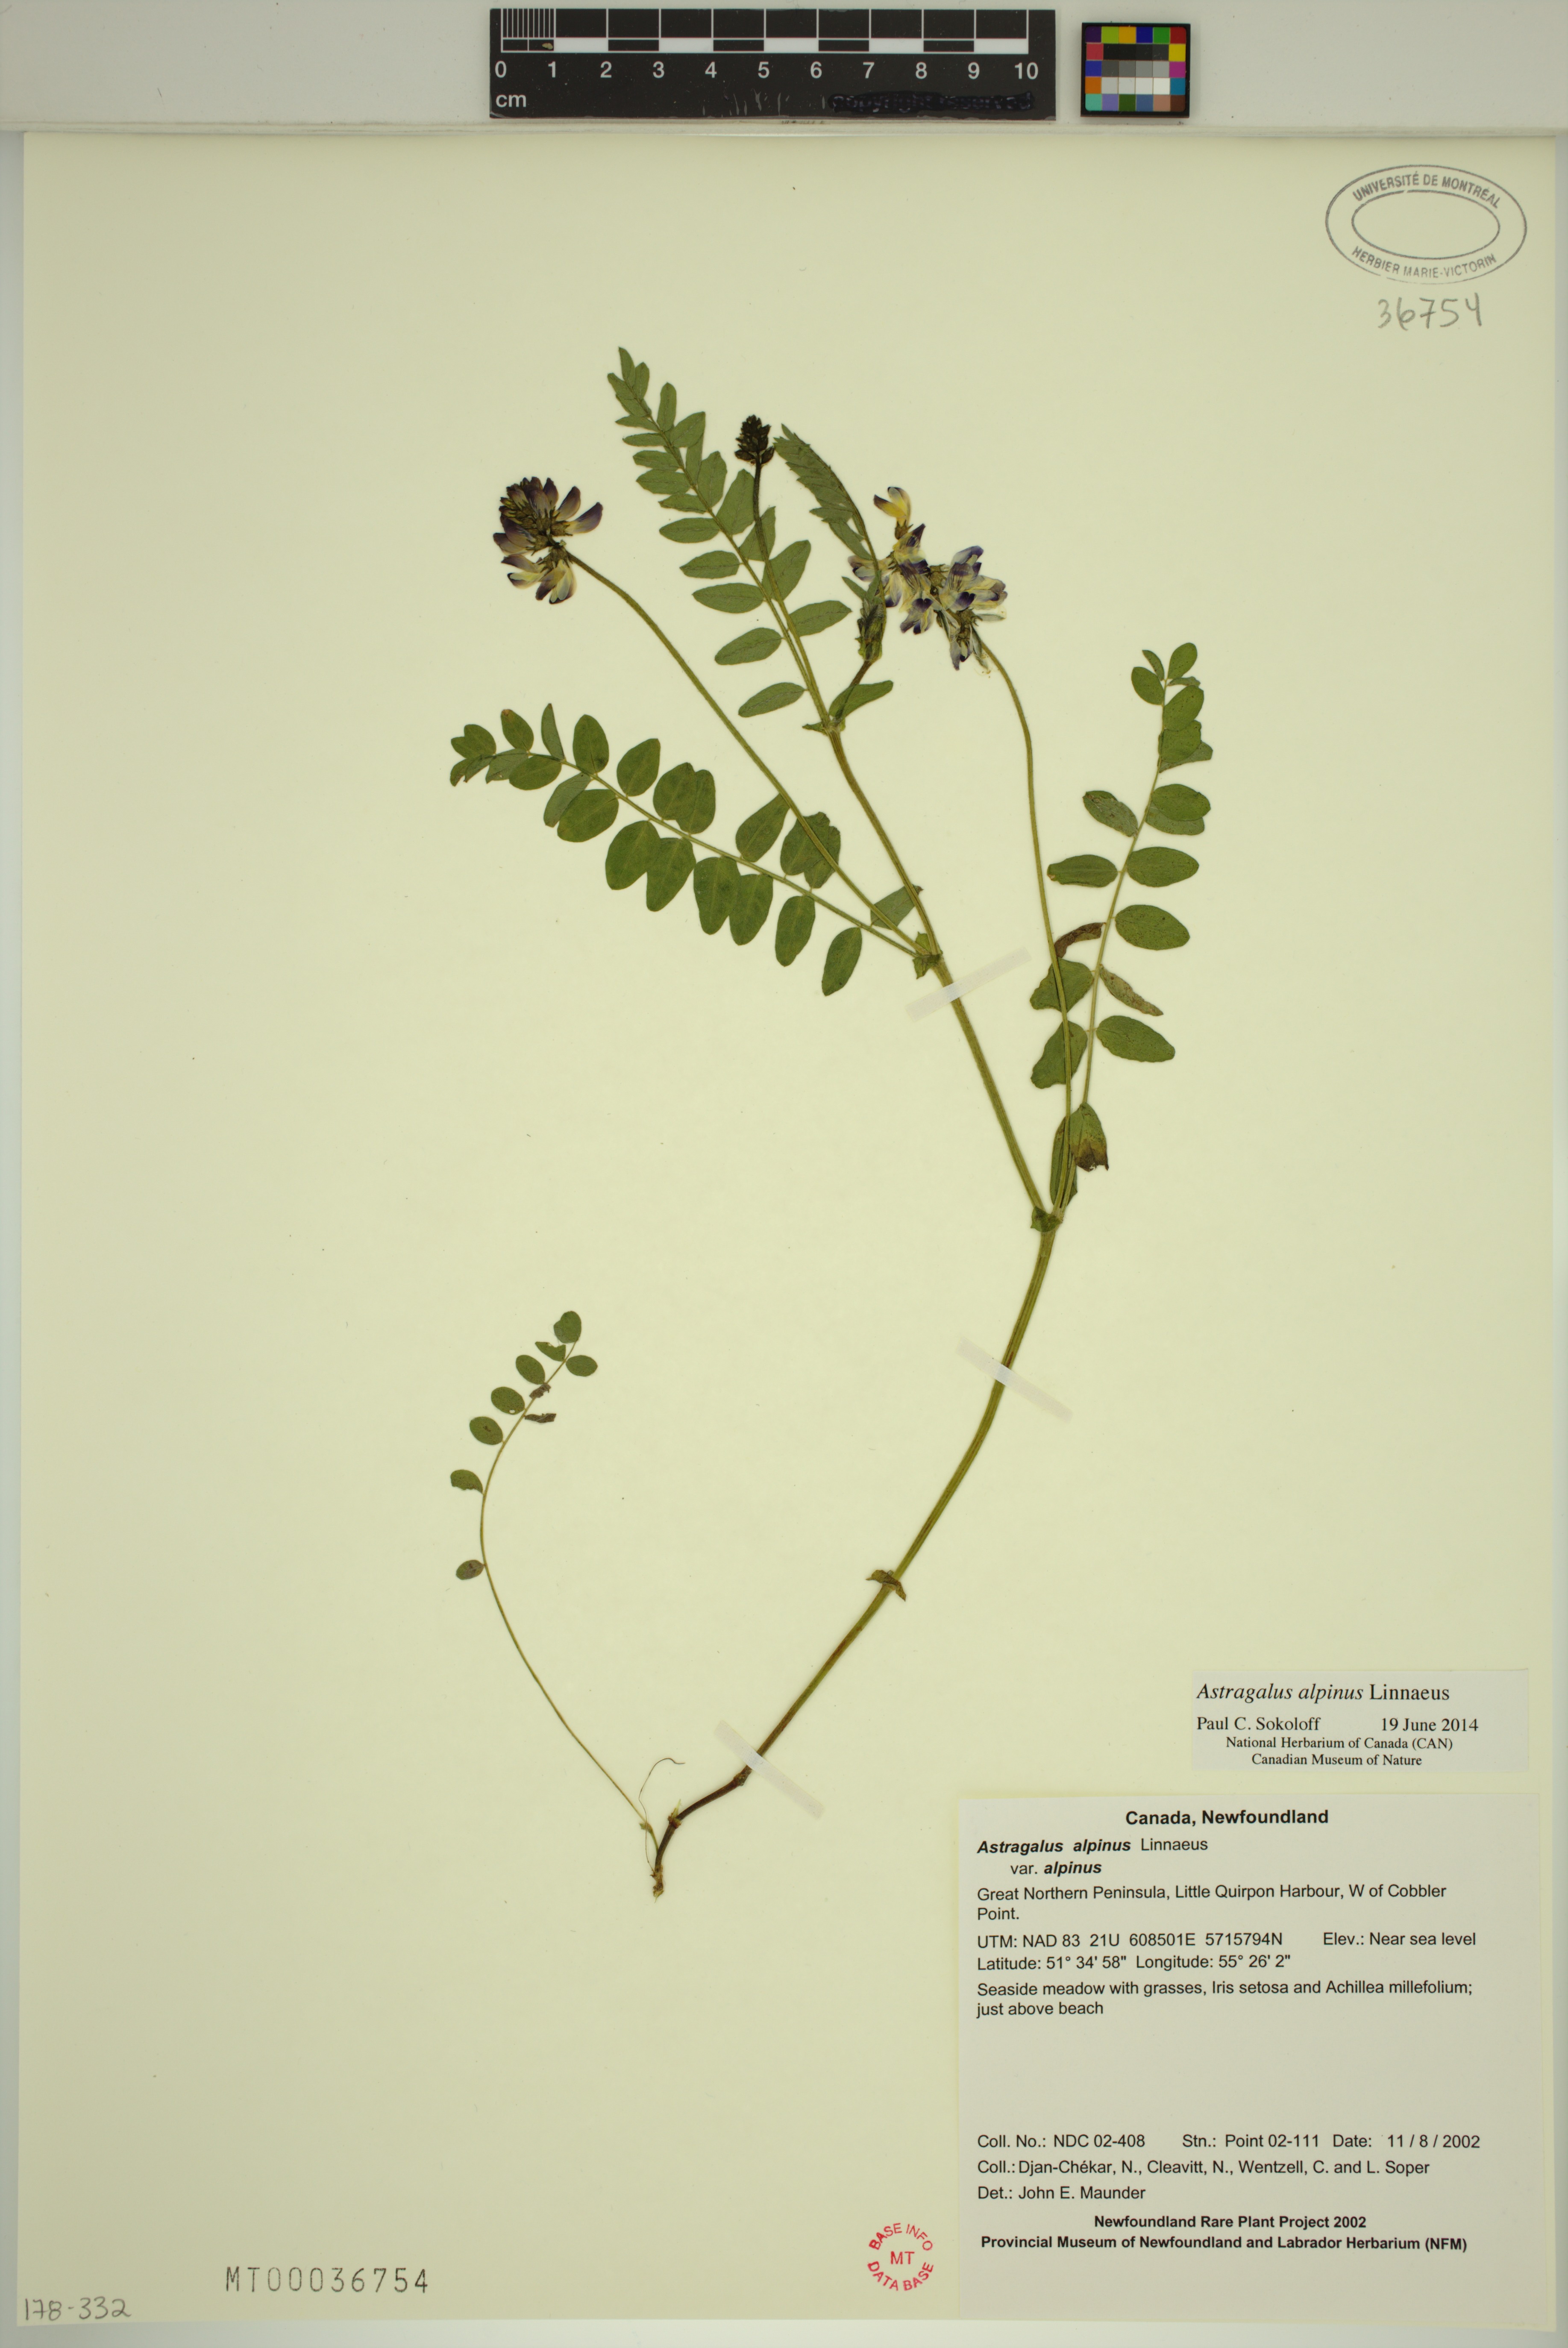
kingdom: Plantae
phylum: Tracheophyta
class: Magnoliopsida
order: Fabales
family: Fabaceae
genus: Astragalus
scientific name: Astragalus alpinus
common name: Alpine milk-vetch
